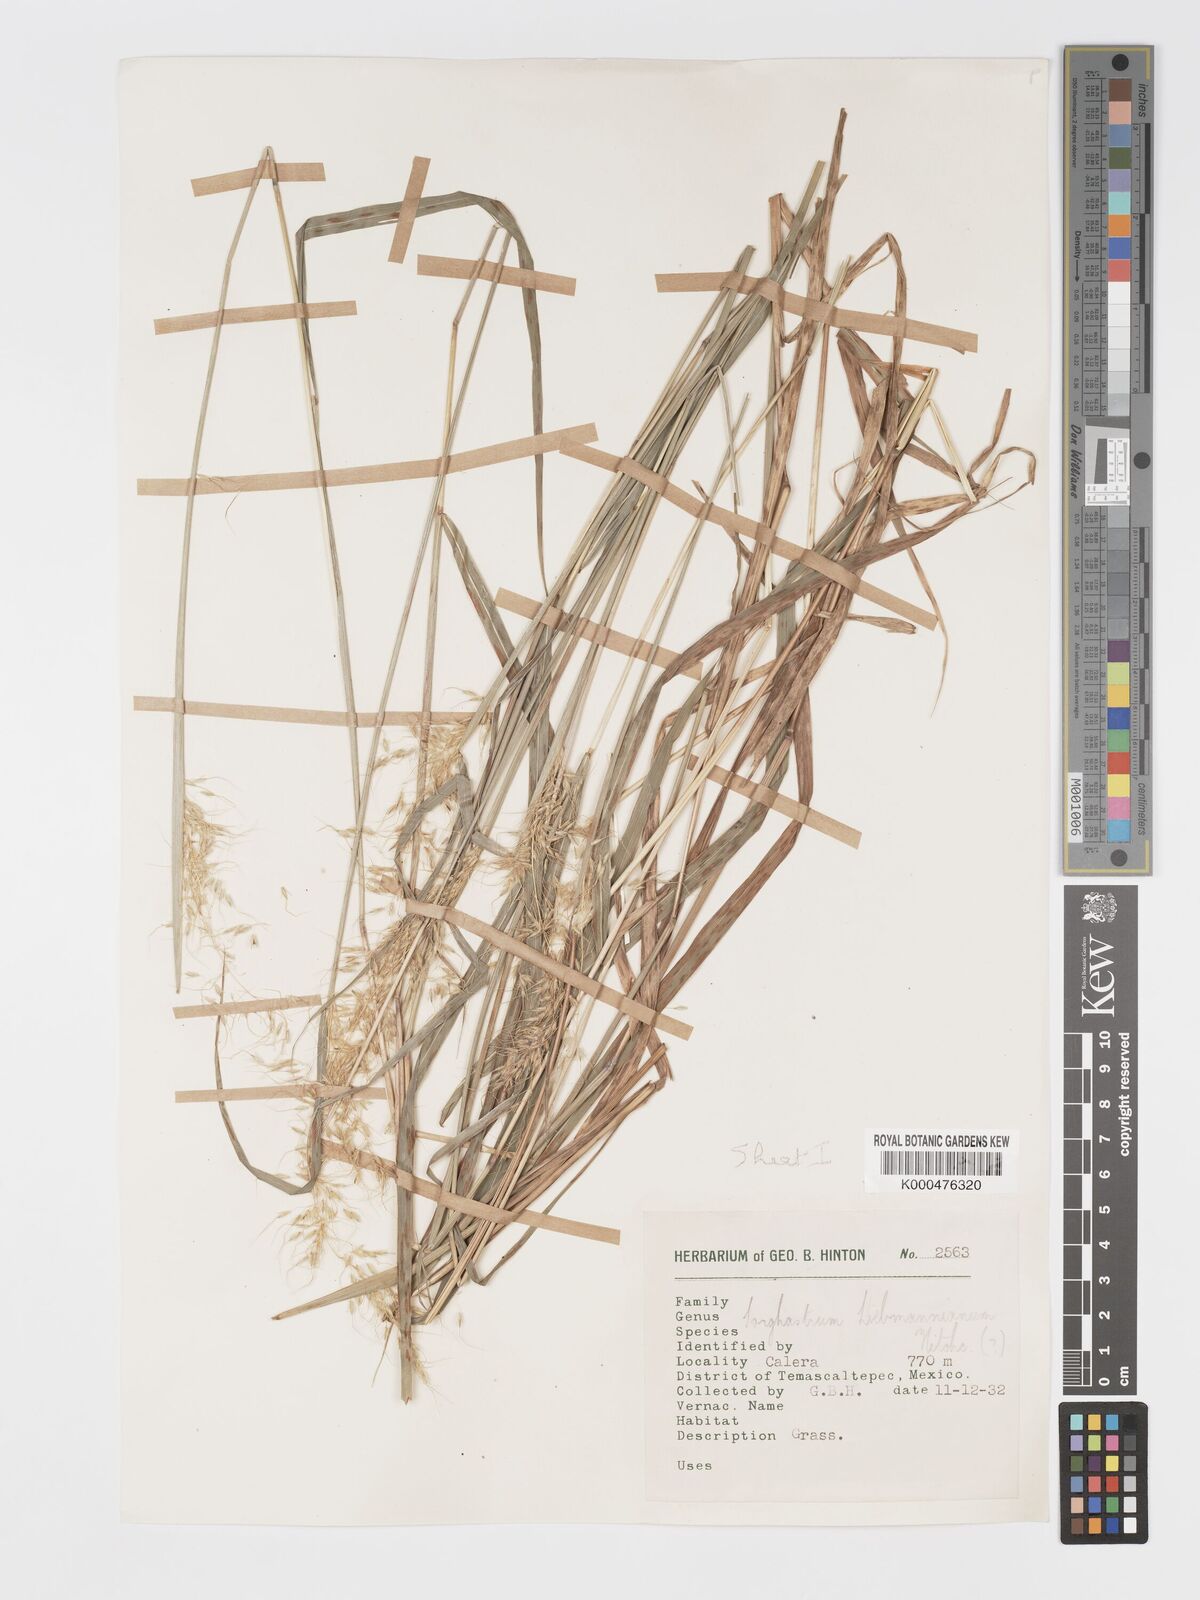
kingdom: Plantae
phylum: Tracheophyta
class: Liliopsida
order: Poales
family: Poaceae
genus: Sorghastrum
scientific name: Sorghastrum incompletum
